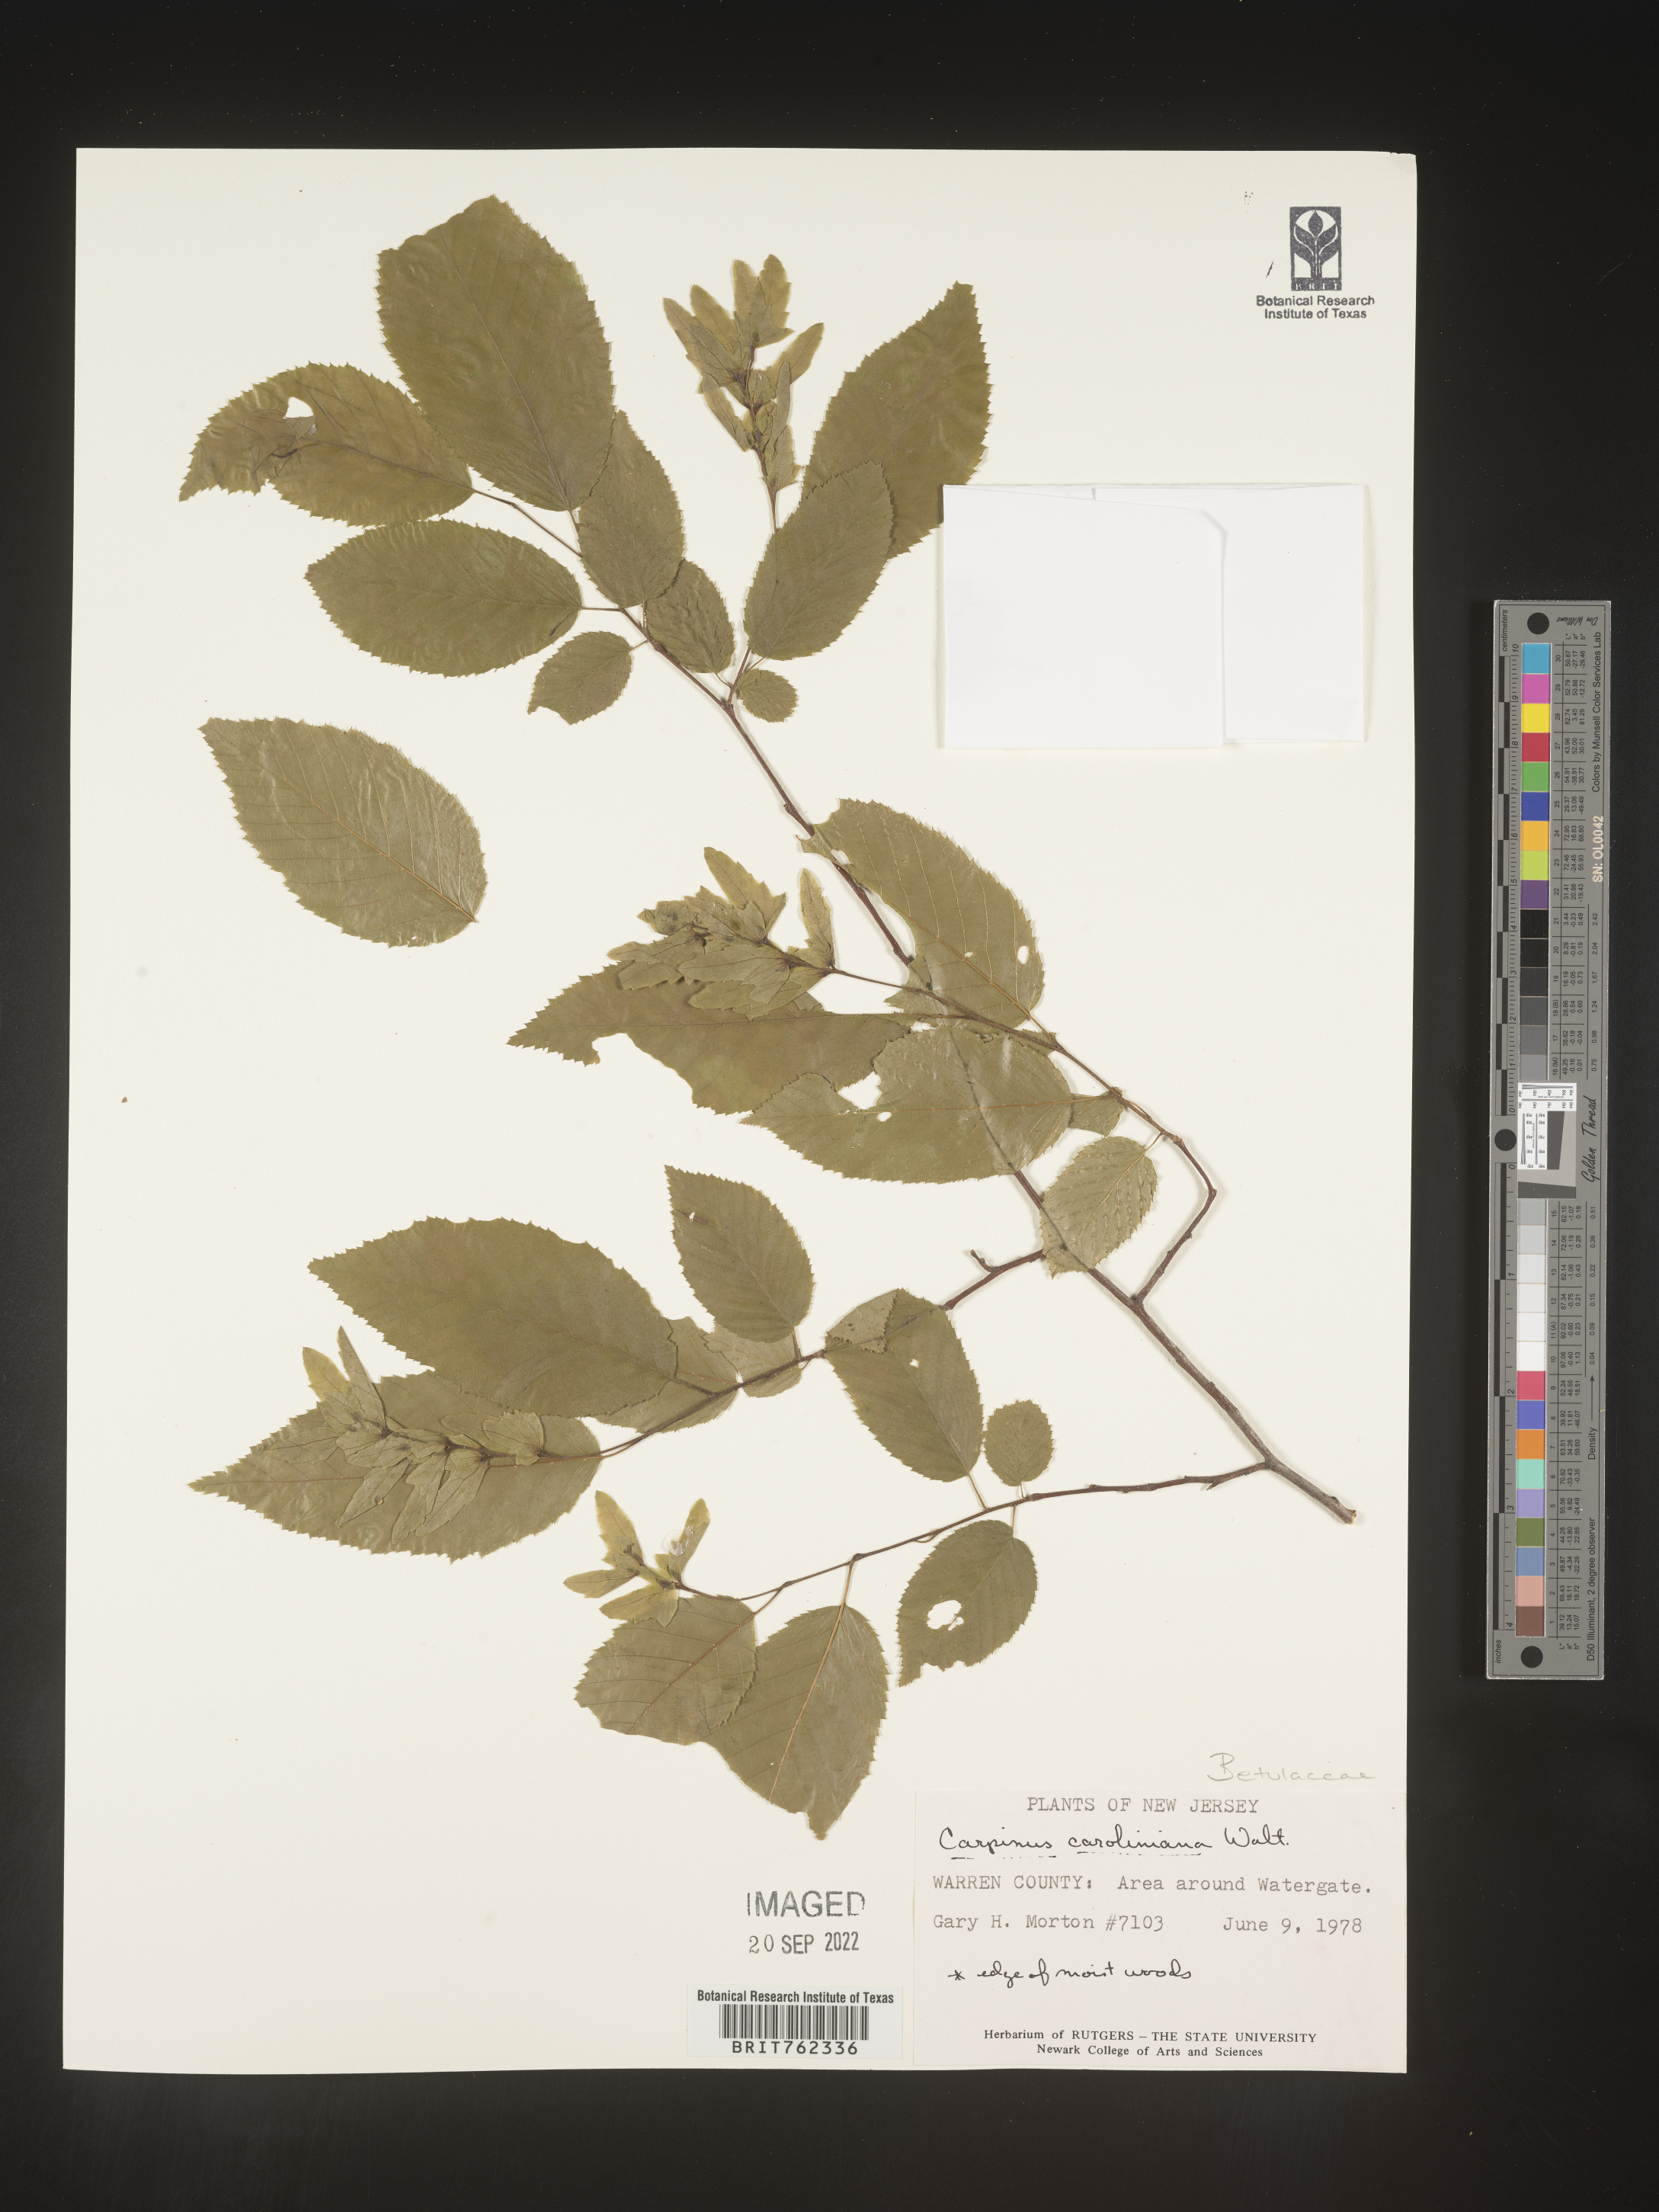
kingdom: Plantae
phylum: Tracheophyta
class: Magnoliopsida
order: Fagales
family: Betulaceae
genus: Carpinus
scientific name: Carpinus caroliniana
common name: American hornbeam
